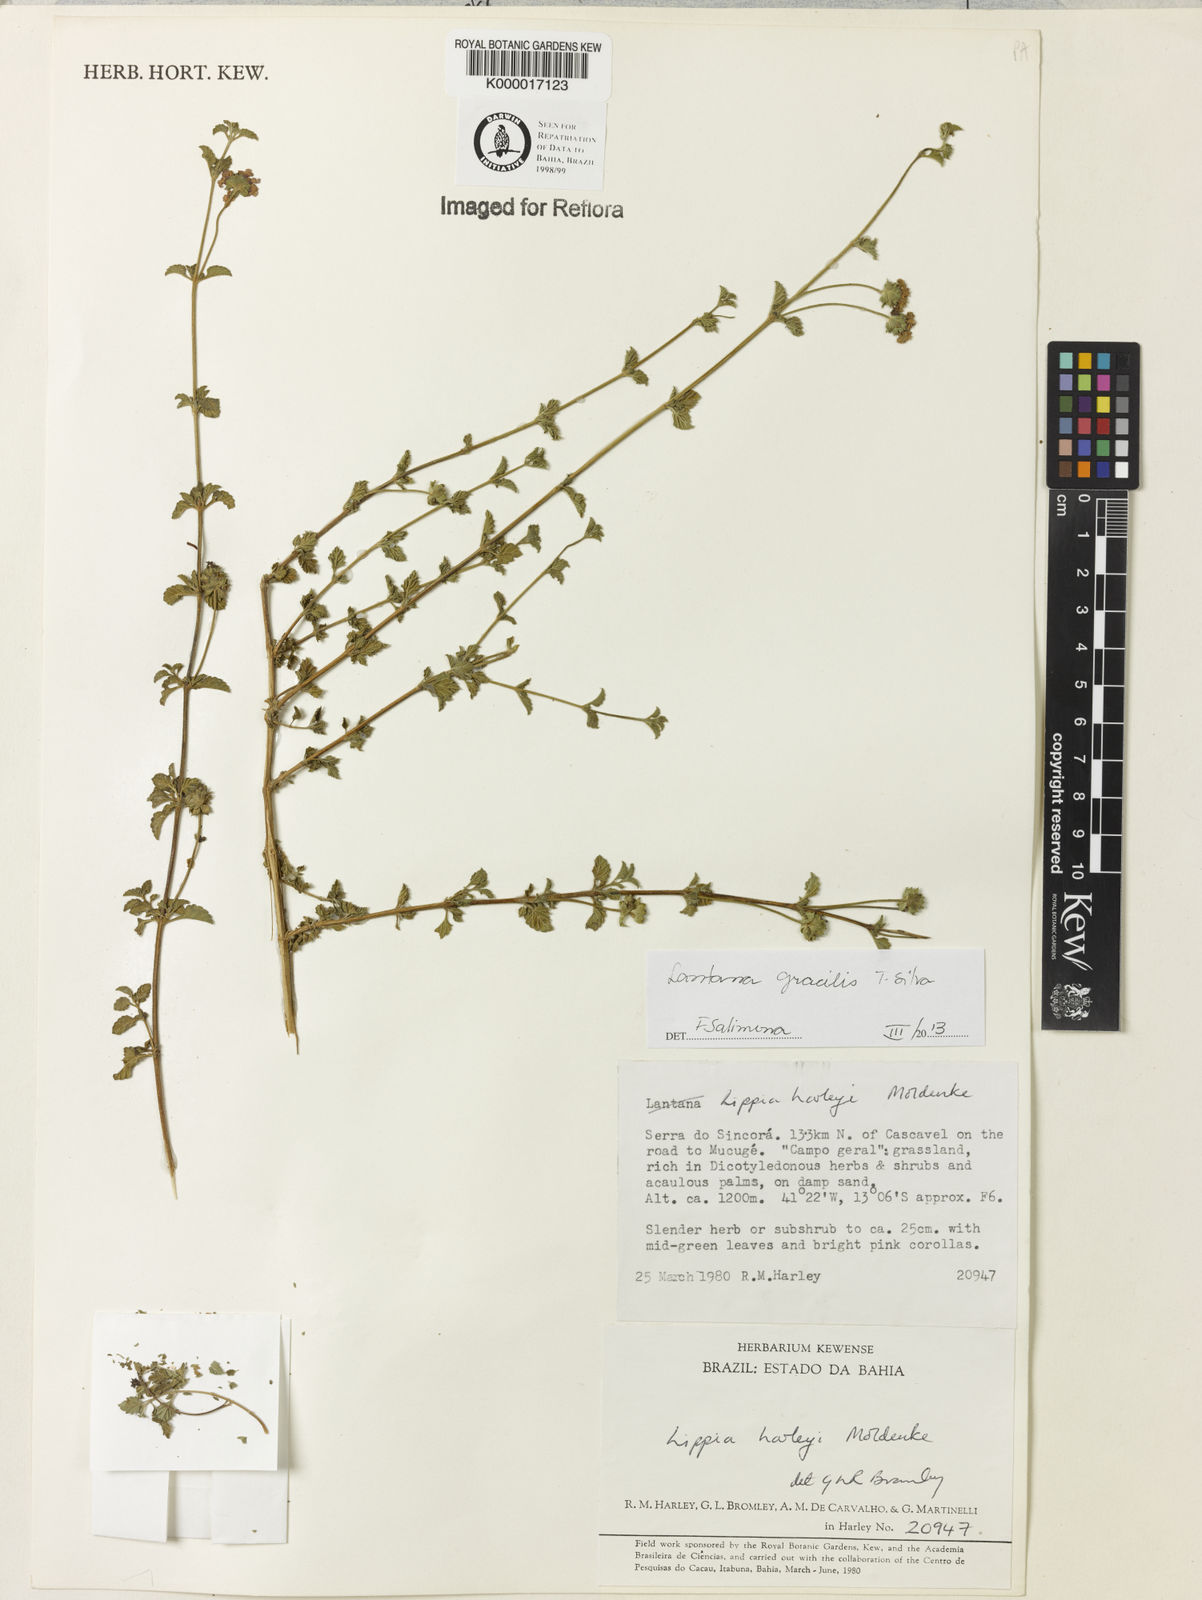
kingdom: Plantae
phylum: Tracheophyta
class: Magnoliopsida
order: Lamiales
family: Verbenaceae
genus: Lippia
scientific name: Lippia harleyi
